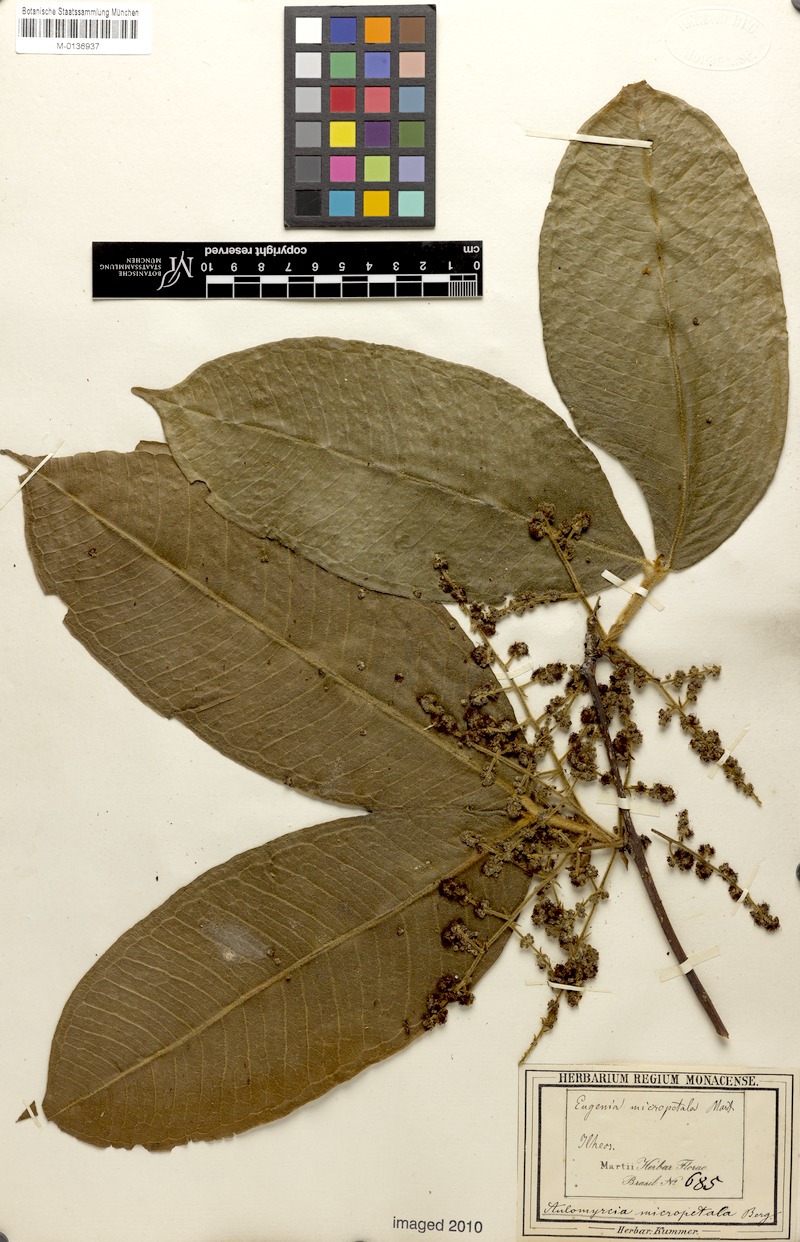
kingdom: Plantae
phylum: Tracheophyta
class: Magnoliopsida
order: Myrtales
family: Myrtaceae
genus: Myrcia
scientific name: Myrcia micropetala
